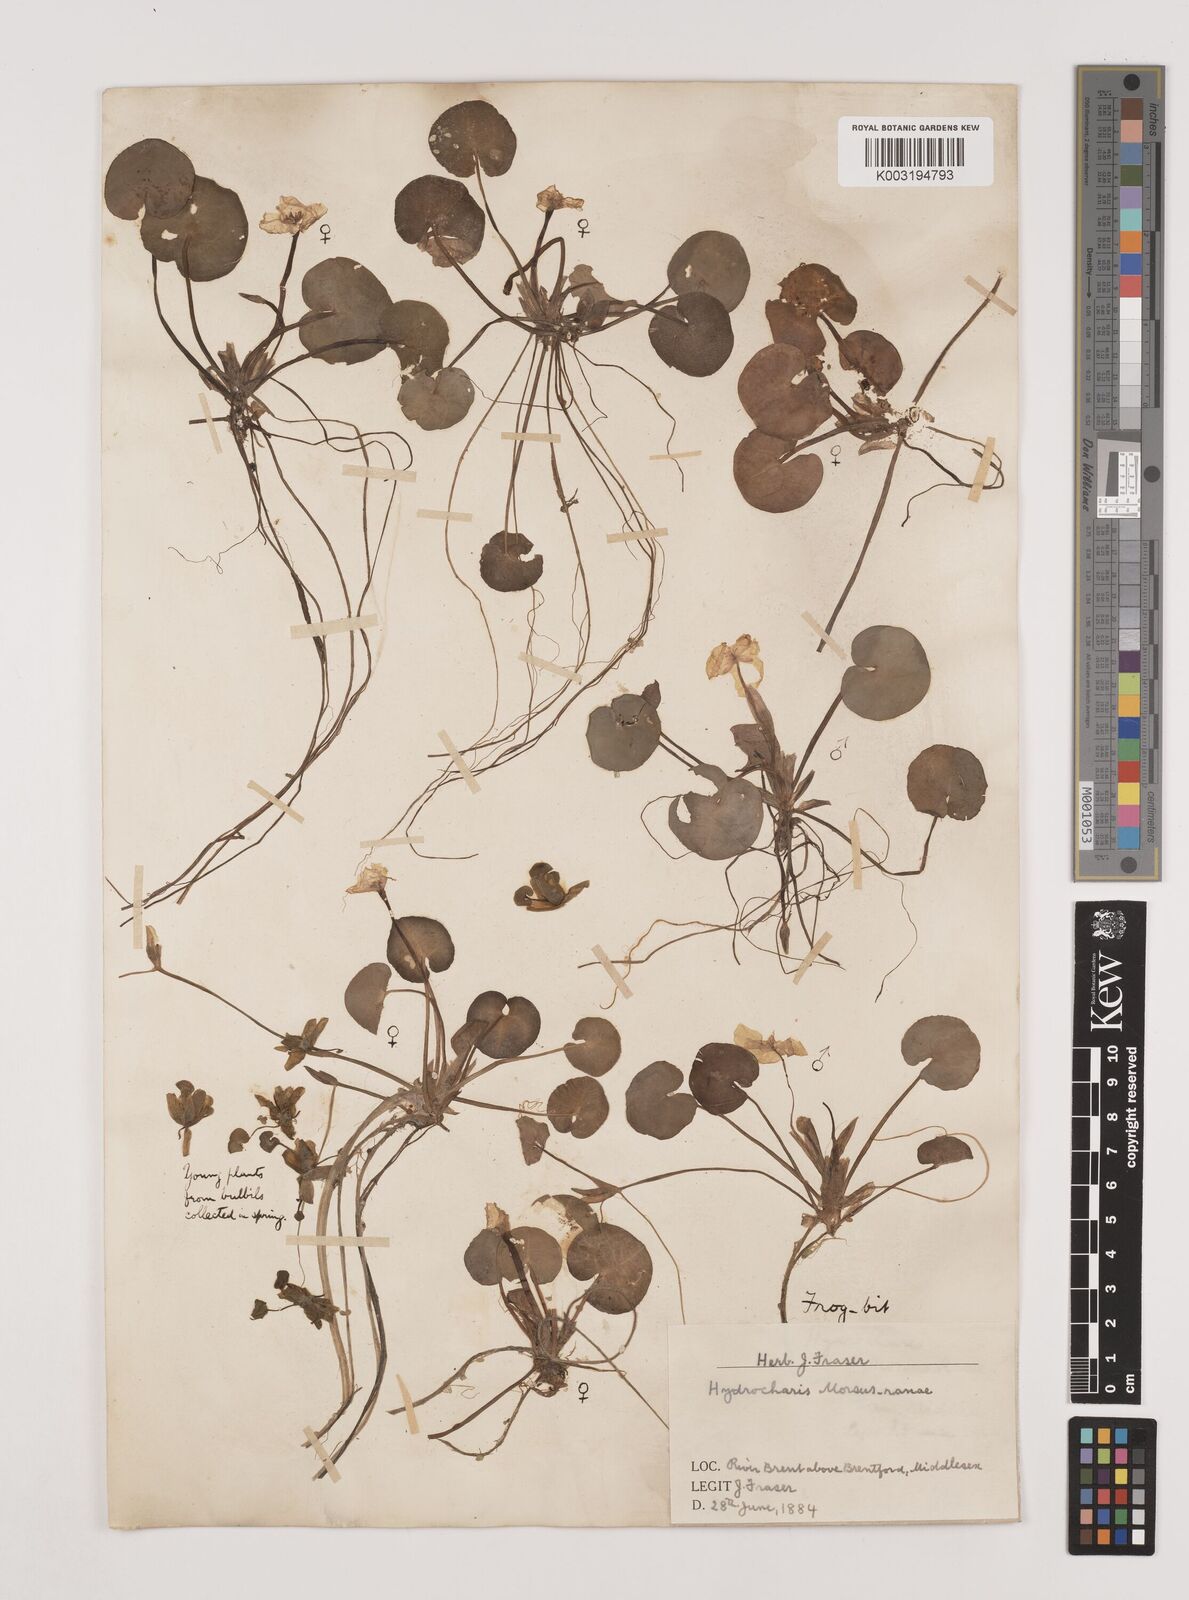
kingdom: Plantae
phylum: Tracheophyta
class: Liliopsida
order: Alismatales
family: Hydrocharitaceae
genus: Hydrocharis
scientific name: Hydrocharis morsus-ranae
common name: Frogbit
